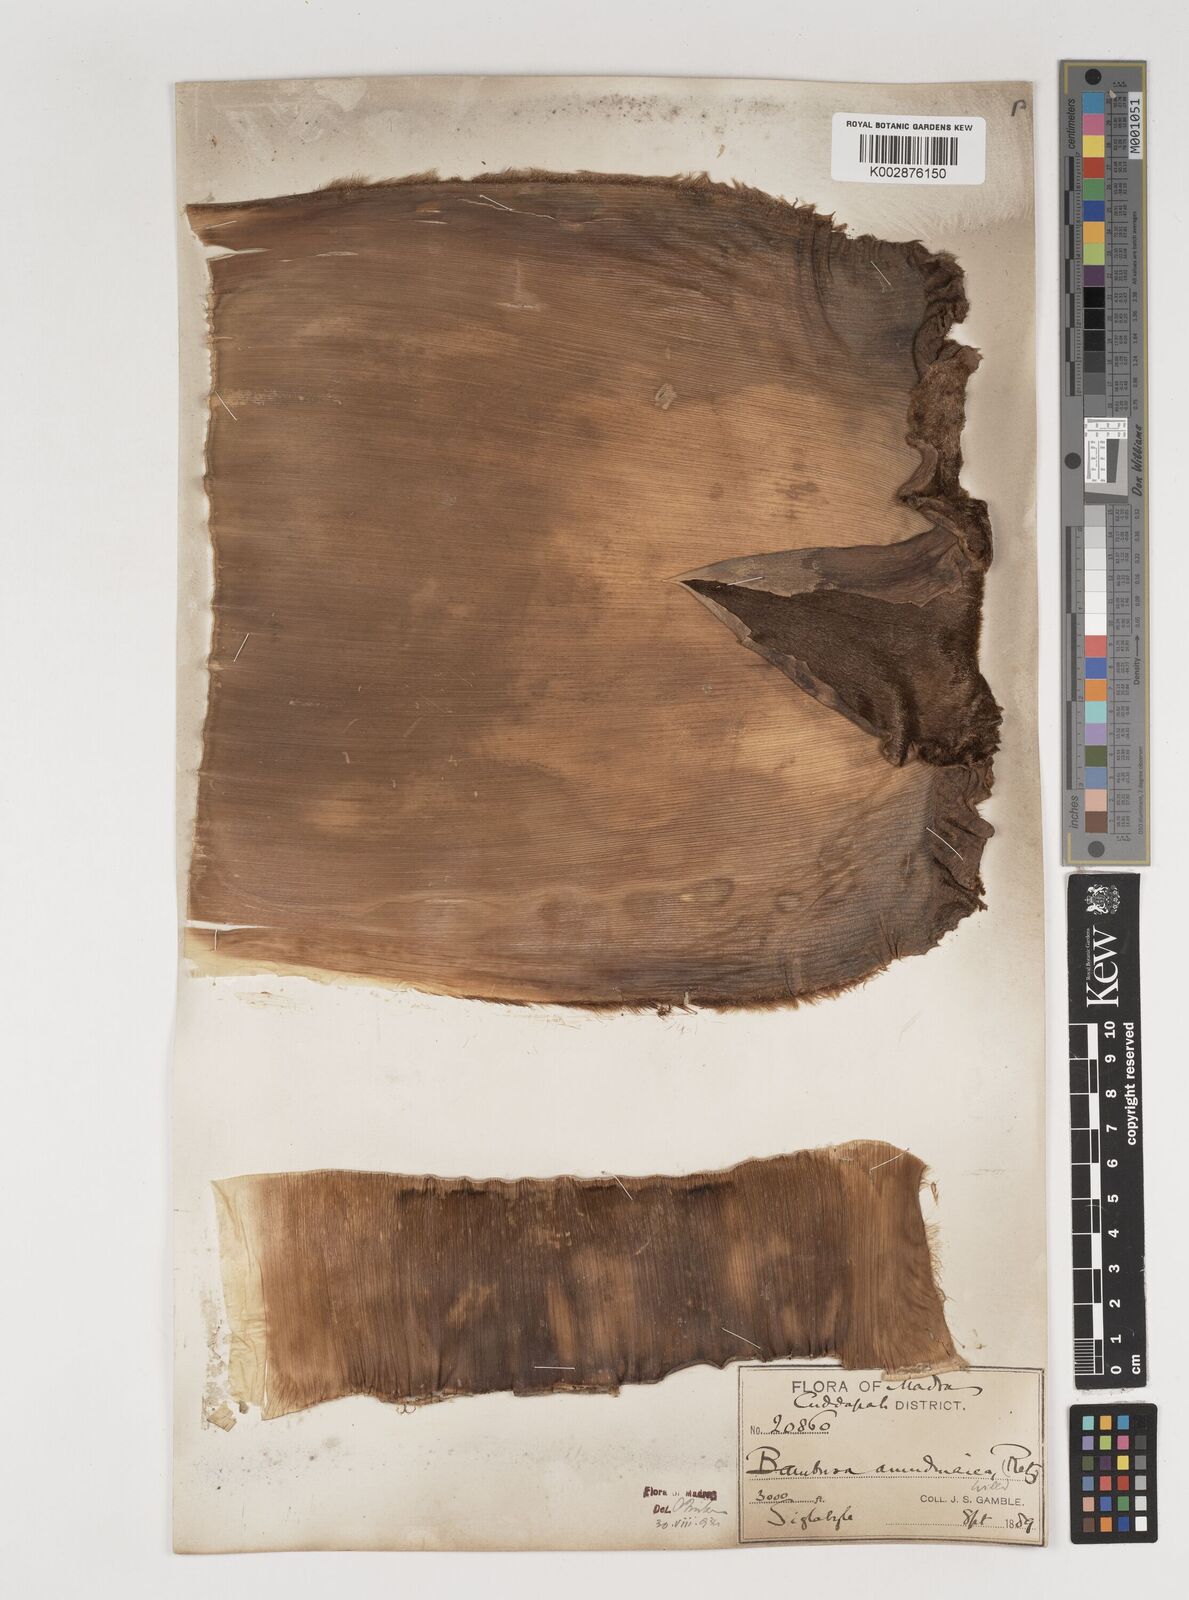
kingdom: Plantae
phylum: Tracheophyta
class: Liliopsida
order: Poales
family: Poaceae
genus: Bambusa
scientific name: Bambusa bambos
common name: Indian thorny bamboo
